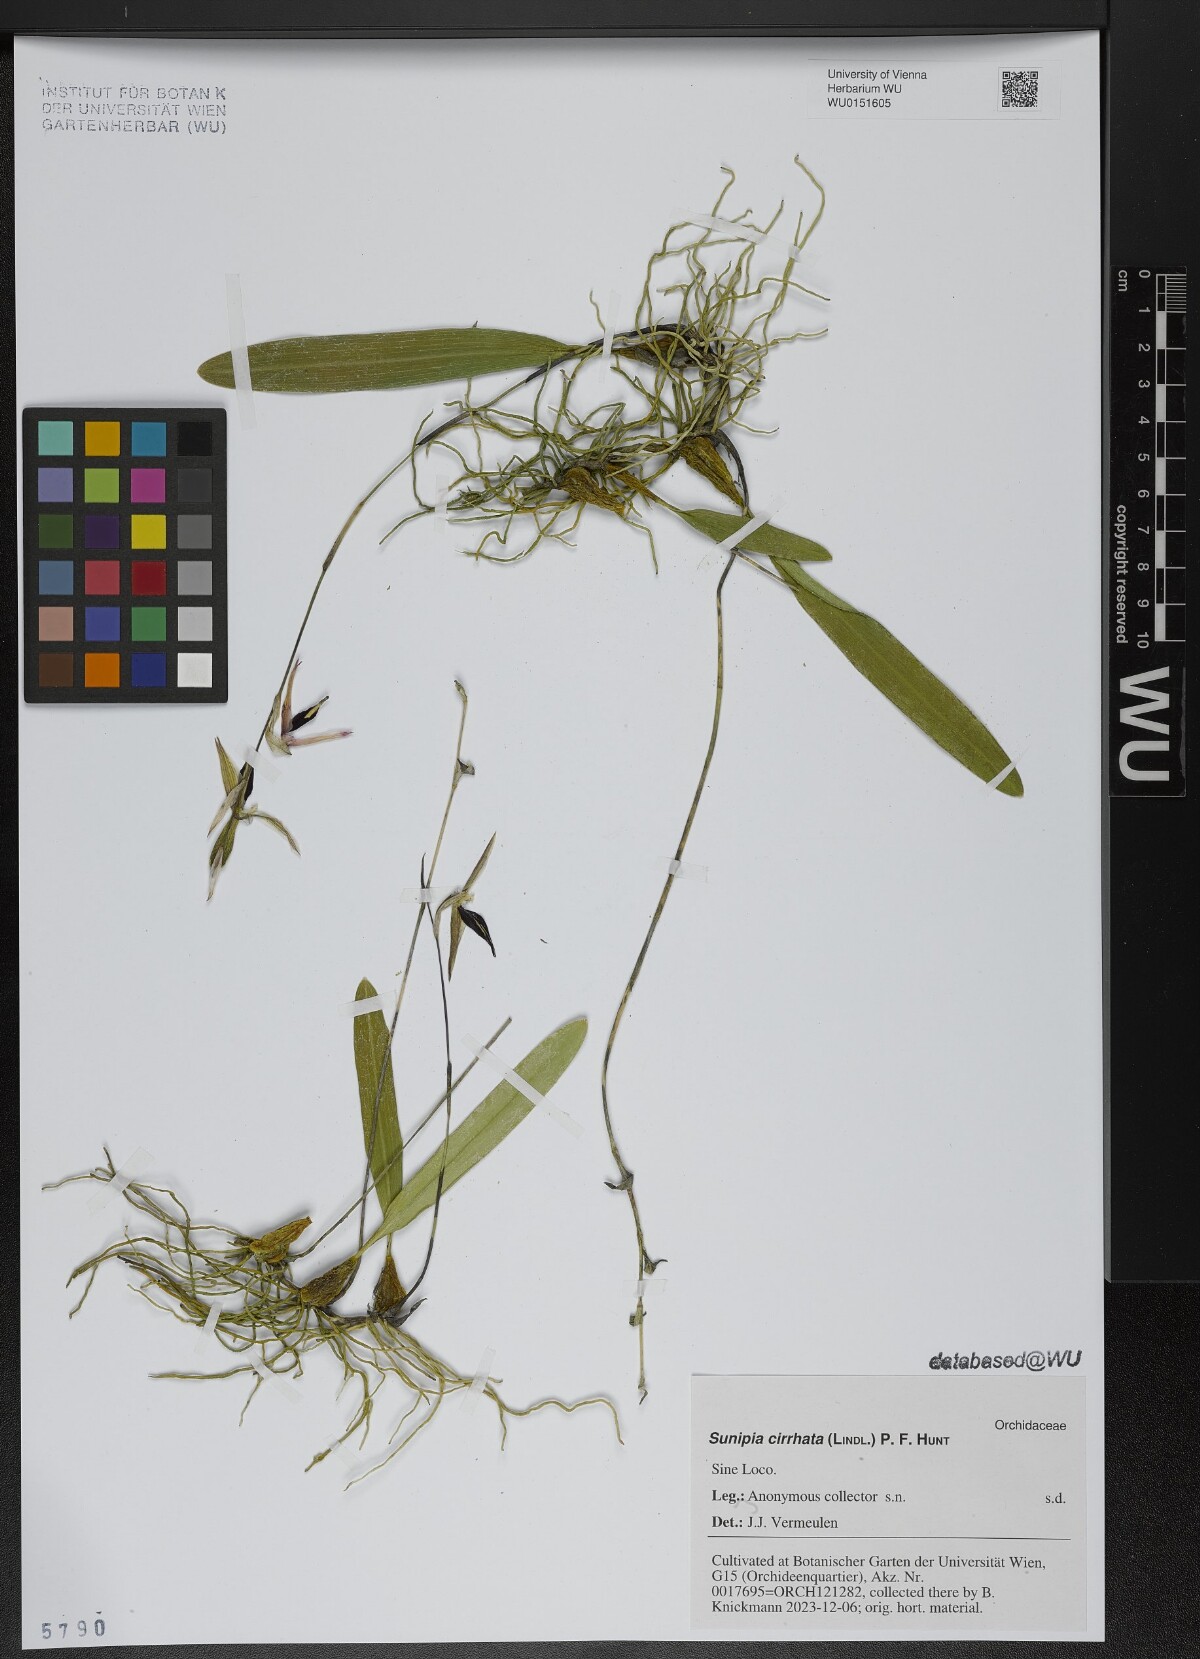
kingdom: Plantae
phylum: Tracheophyta
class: Liliopsida
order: Asparagales
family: Orchidaceae
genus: Bulbophyllum
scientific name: Bulbophyllum purpureofuscum
